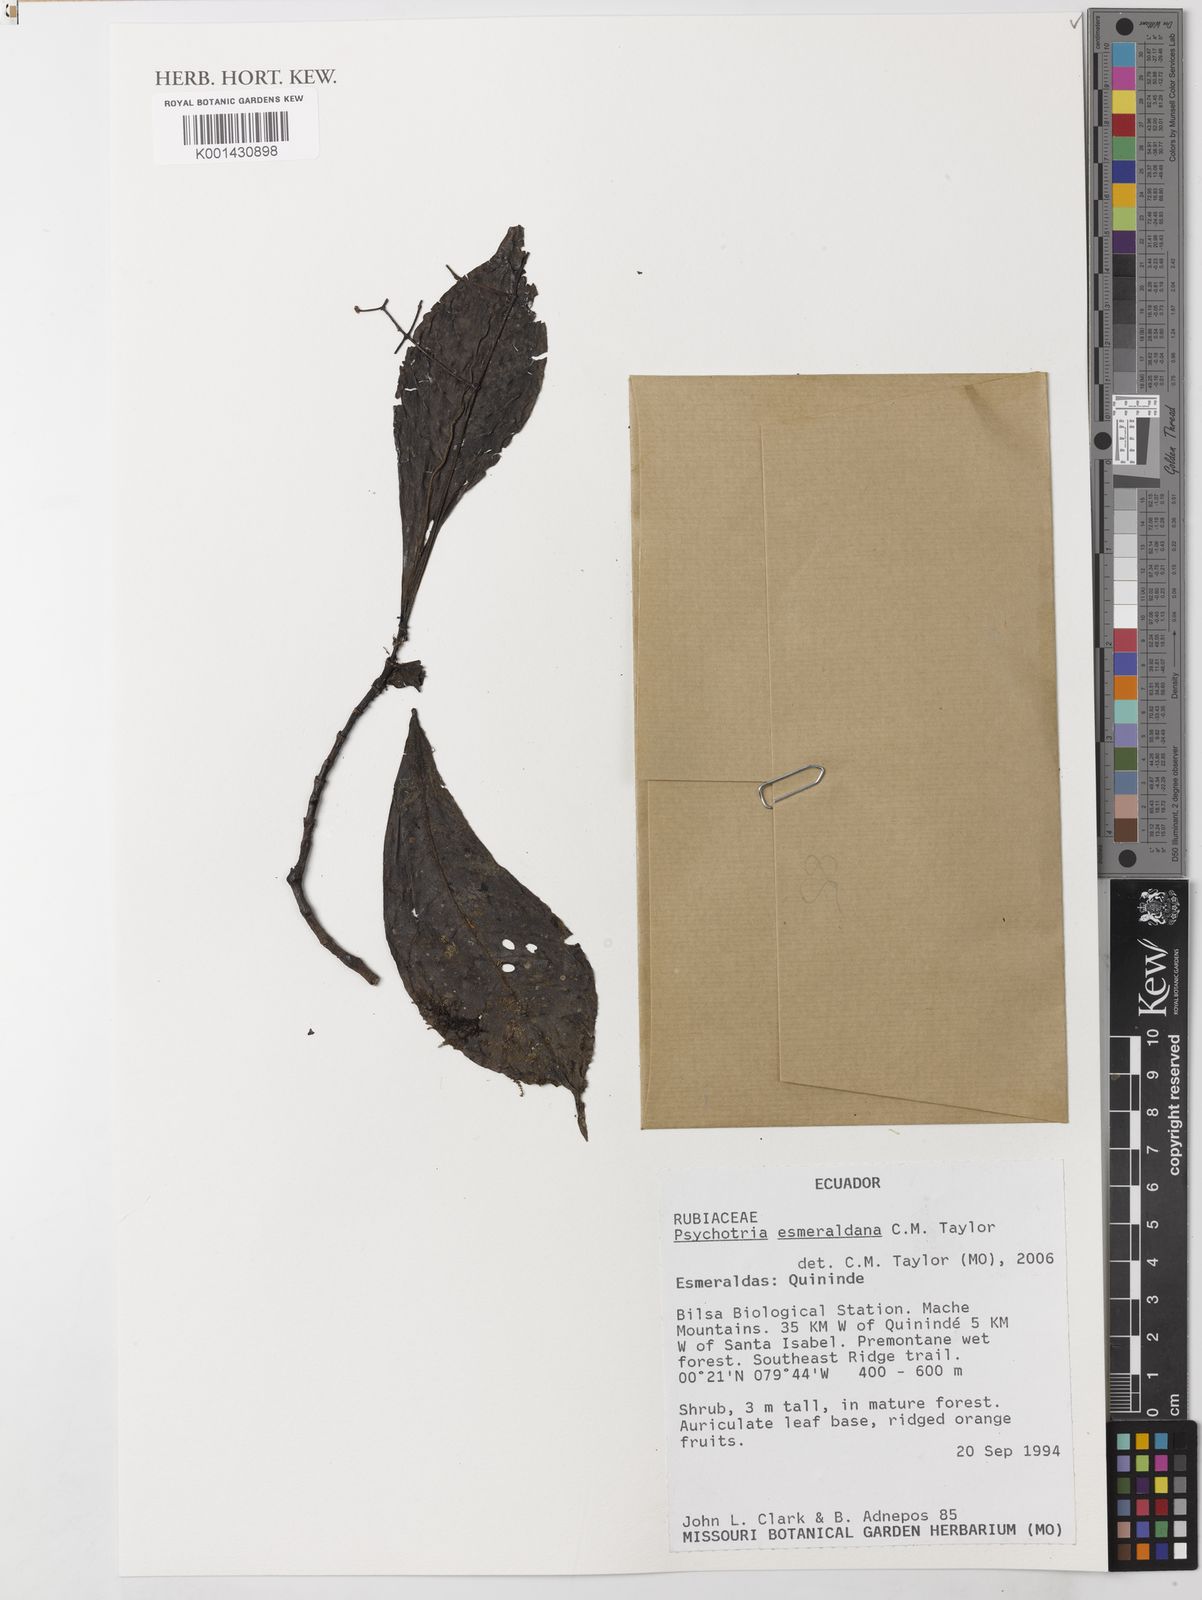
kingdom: Plantae
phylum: Tracheophyta
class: Magnoliopsida
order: Gentianales
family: Rubiaceae
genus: Psychotria
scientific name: Psychotria esmeraldana
